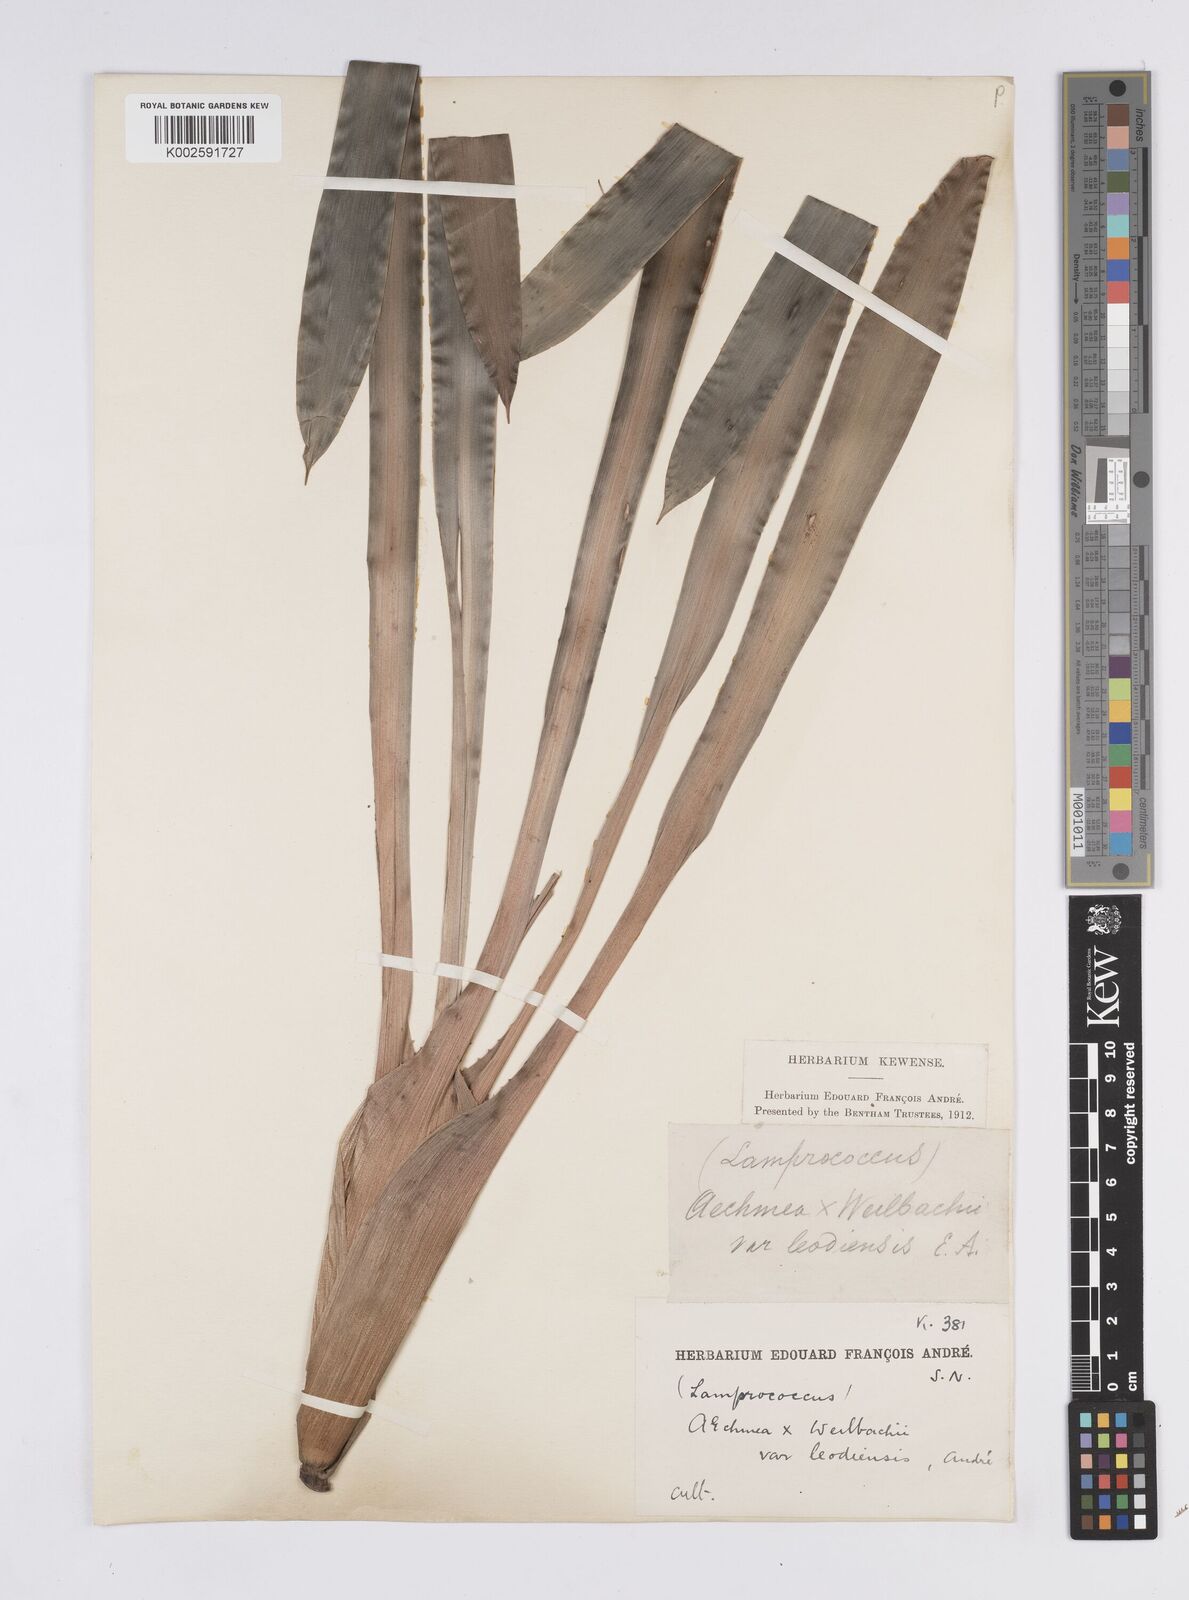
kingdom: Plantae
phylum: Tracheophyta
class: Liliopsida
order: Poales
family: Bromeliaceae
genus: Aechmea
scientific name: Aechmea weilbachii
